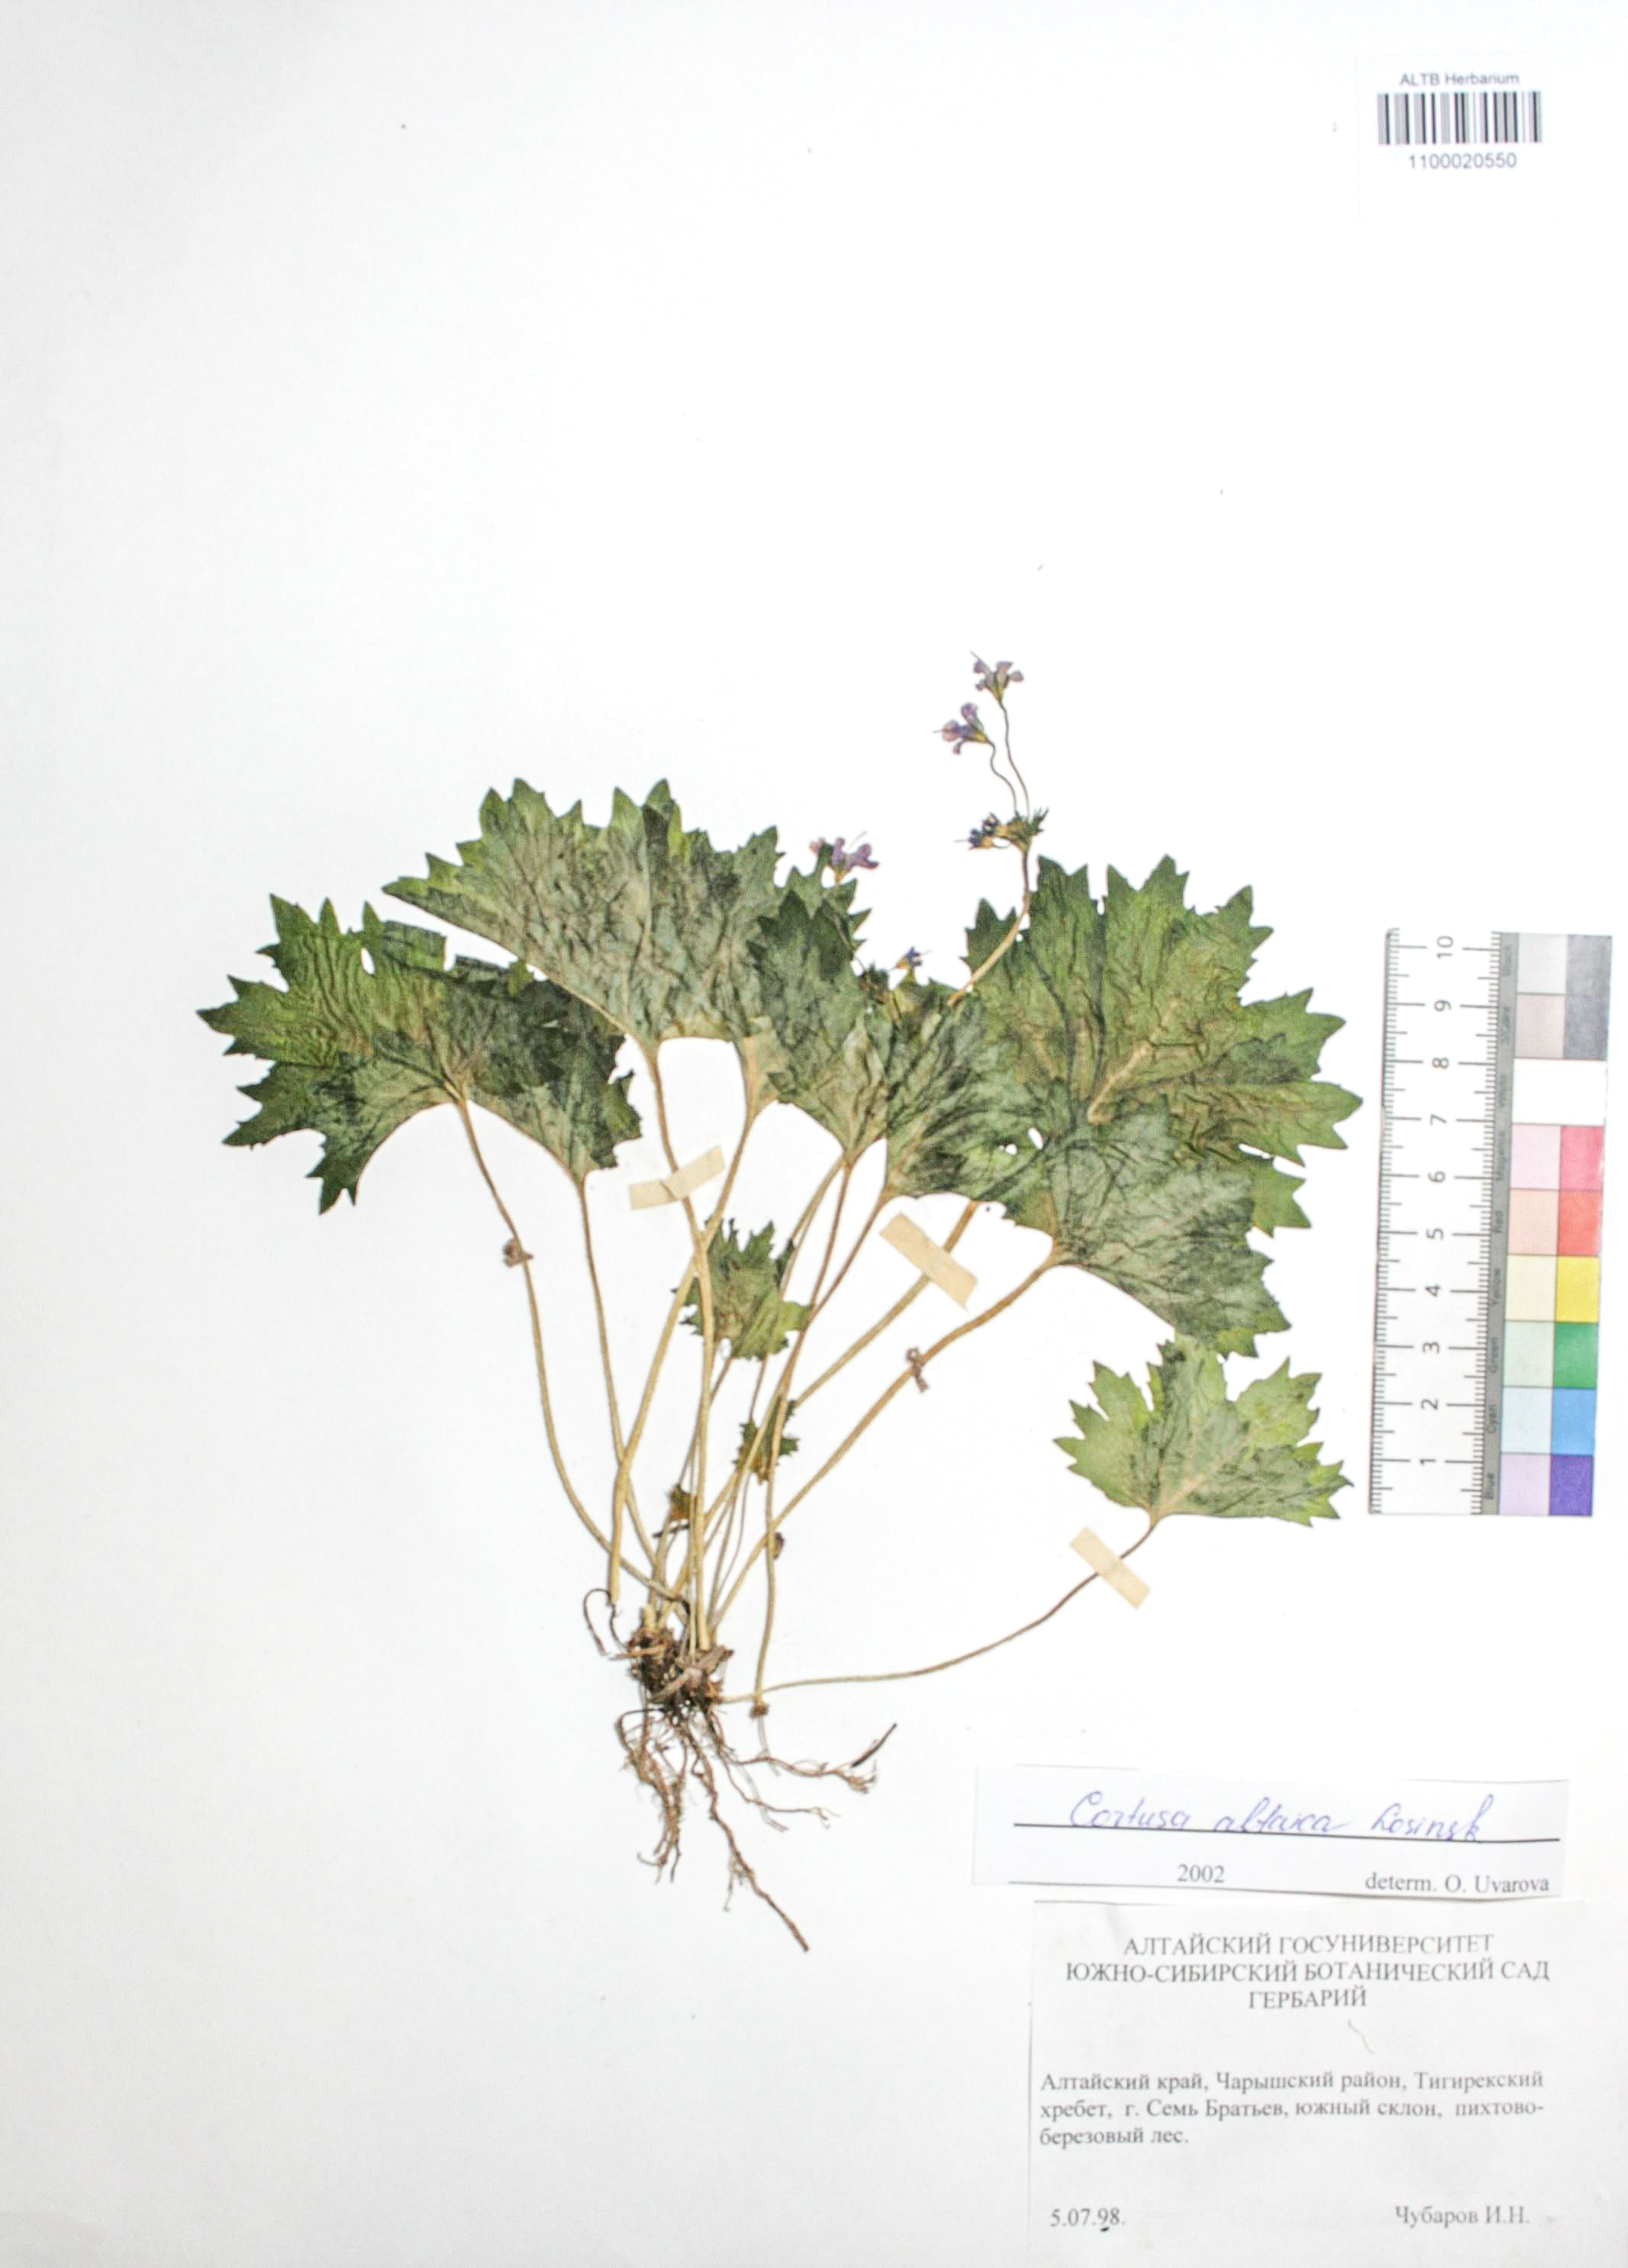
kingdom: Plantae
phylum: Tracheophyta
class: Magnoliopsida
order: Ericales
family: Primulaceae
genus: Primula
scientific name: Primula matthioli
